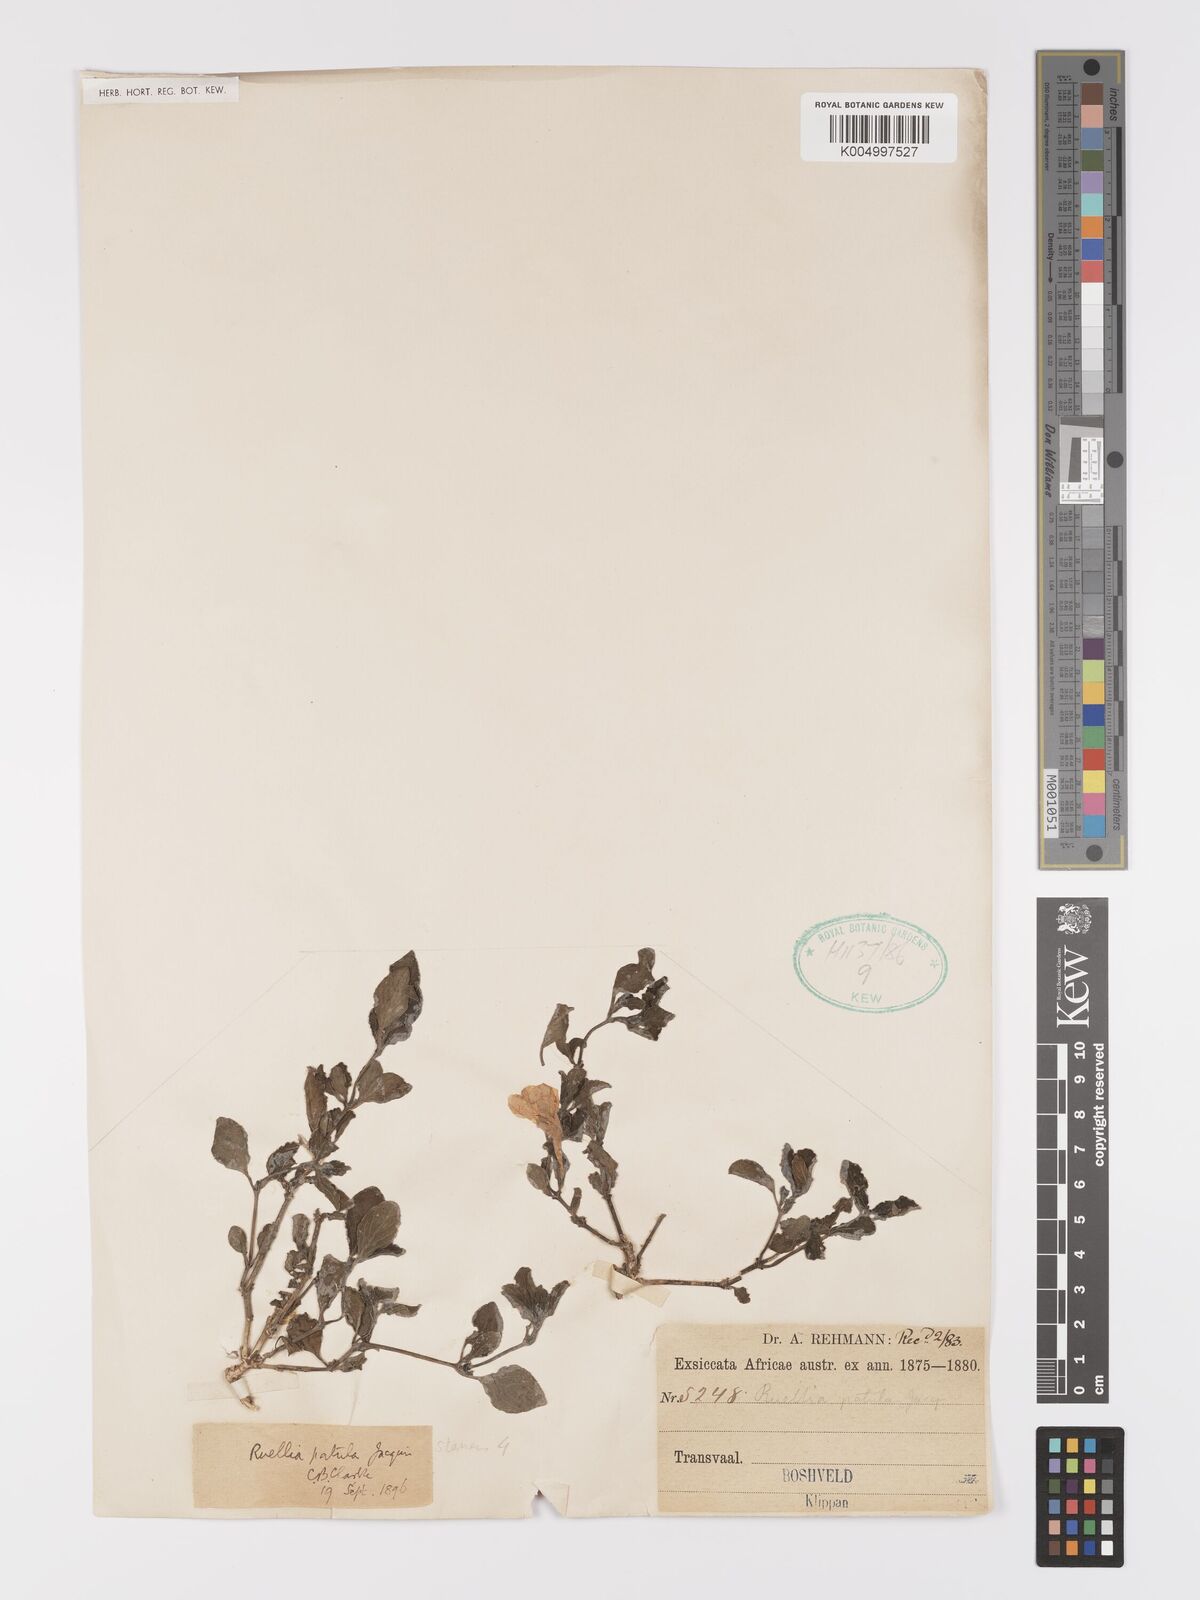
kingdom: Plantae
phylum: Tracheophyta
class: Magnoliopsida
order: Lamiales
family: Acanthaceae
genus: Ruellia
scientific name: Ruellia patula
